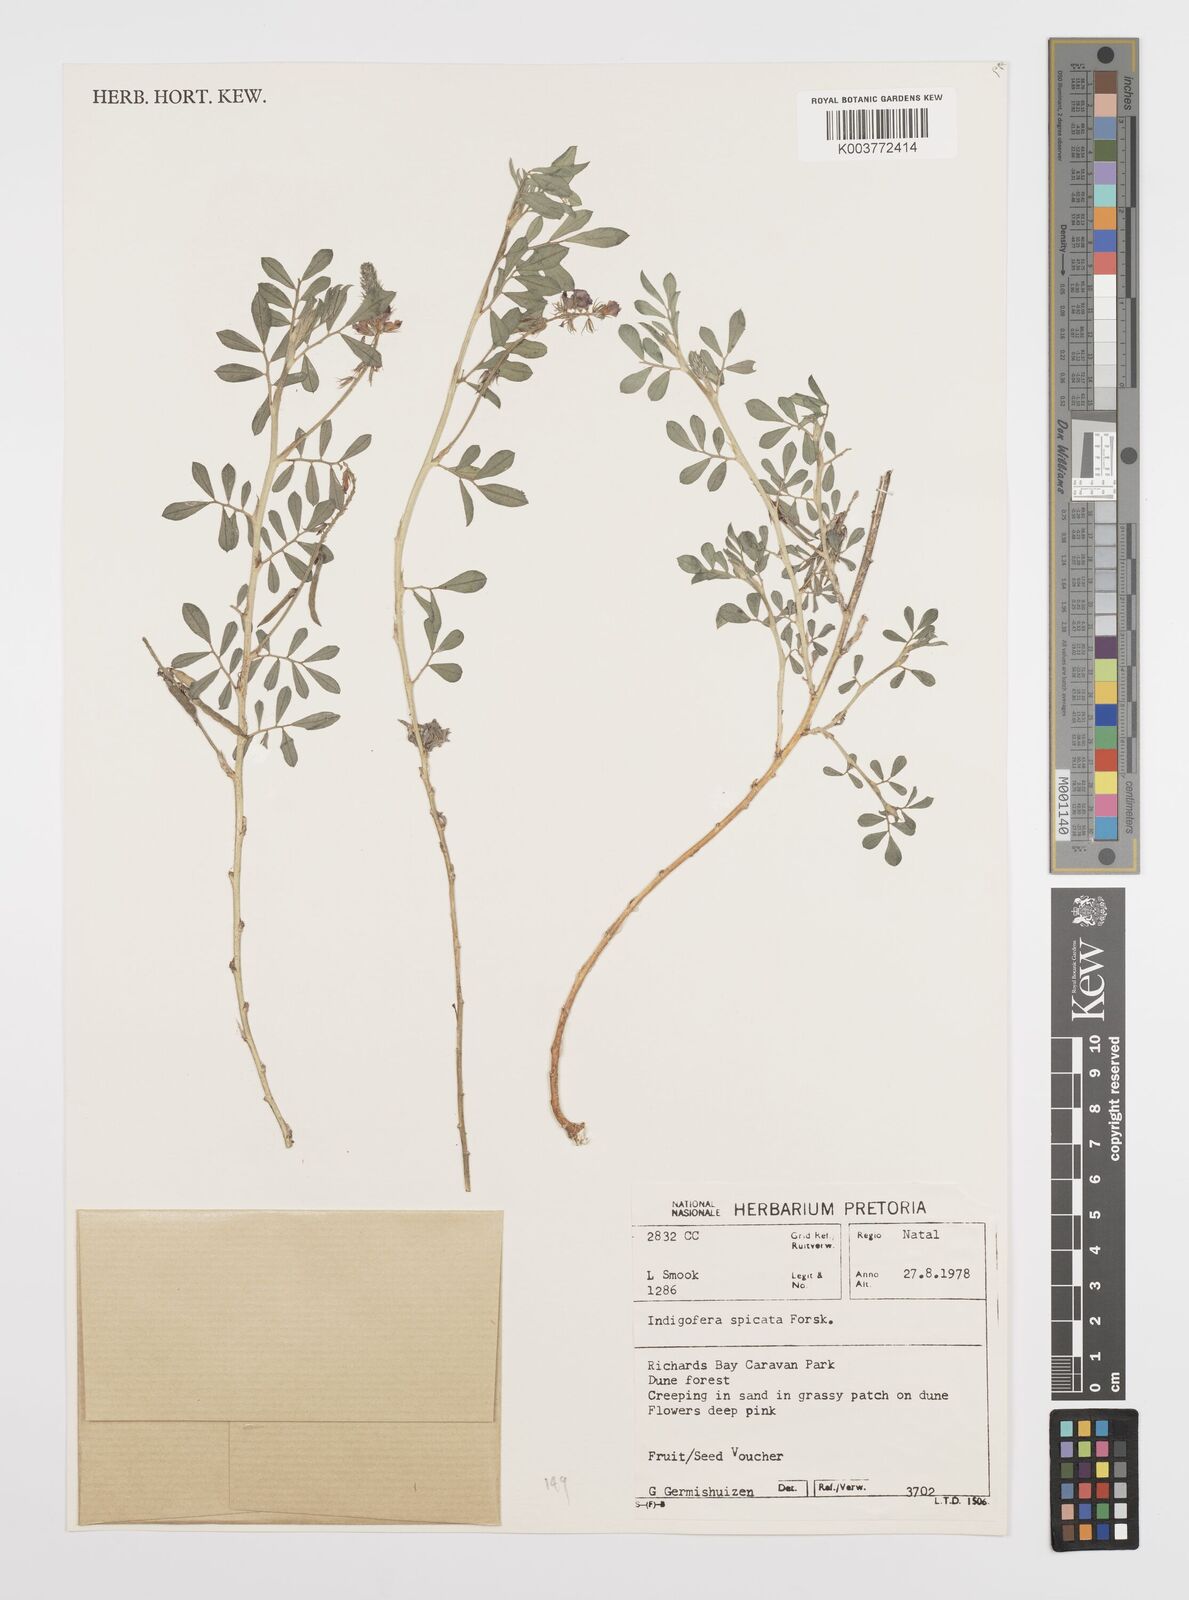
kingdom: Plantae
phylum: Tracheophyta
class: Magnoliopsida
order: Fabales
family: Fabaceae
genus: Indigofera
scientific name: Indigofera spicata
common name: Creeping indigo
